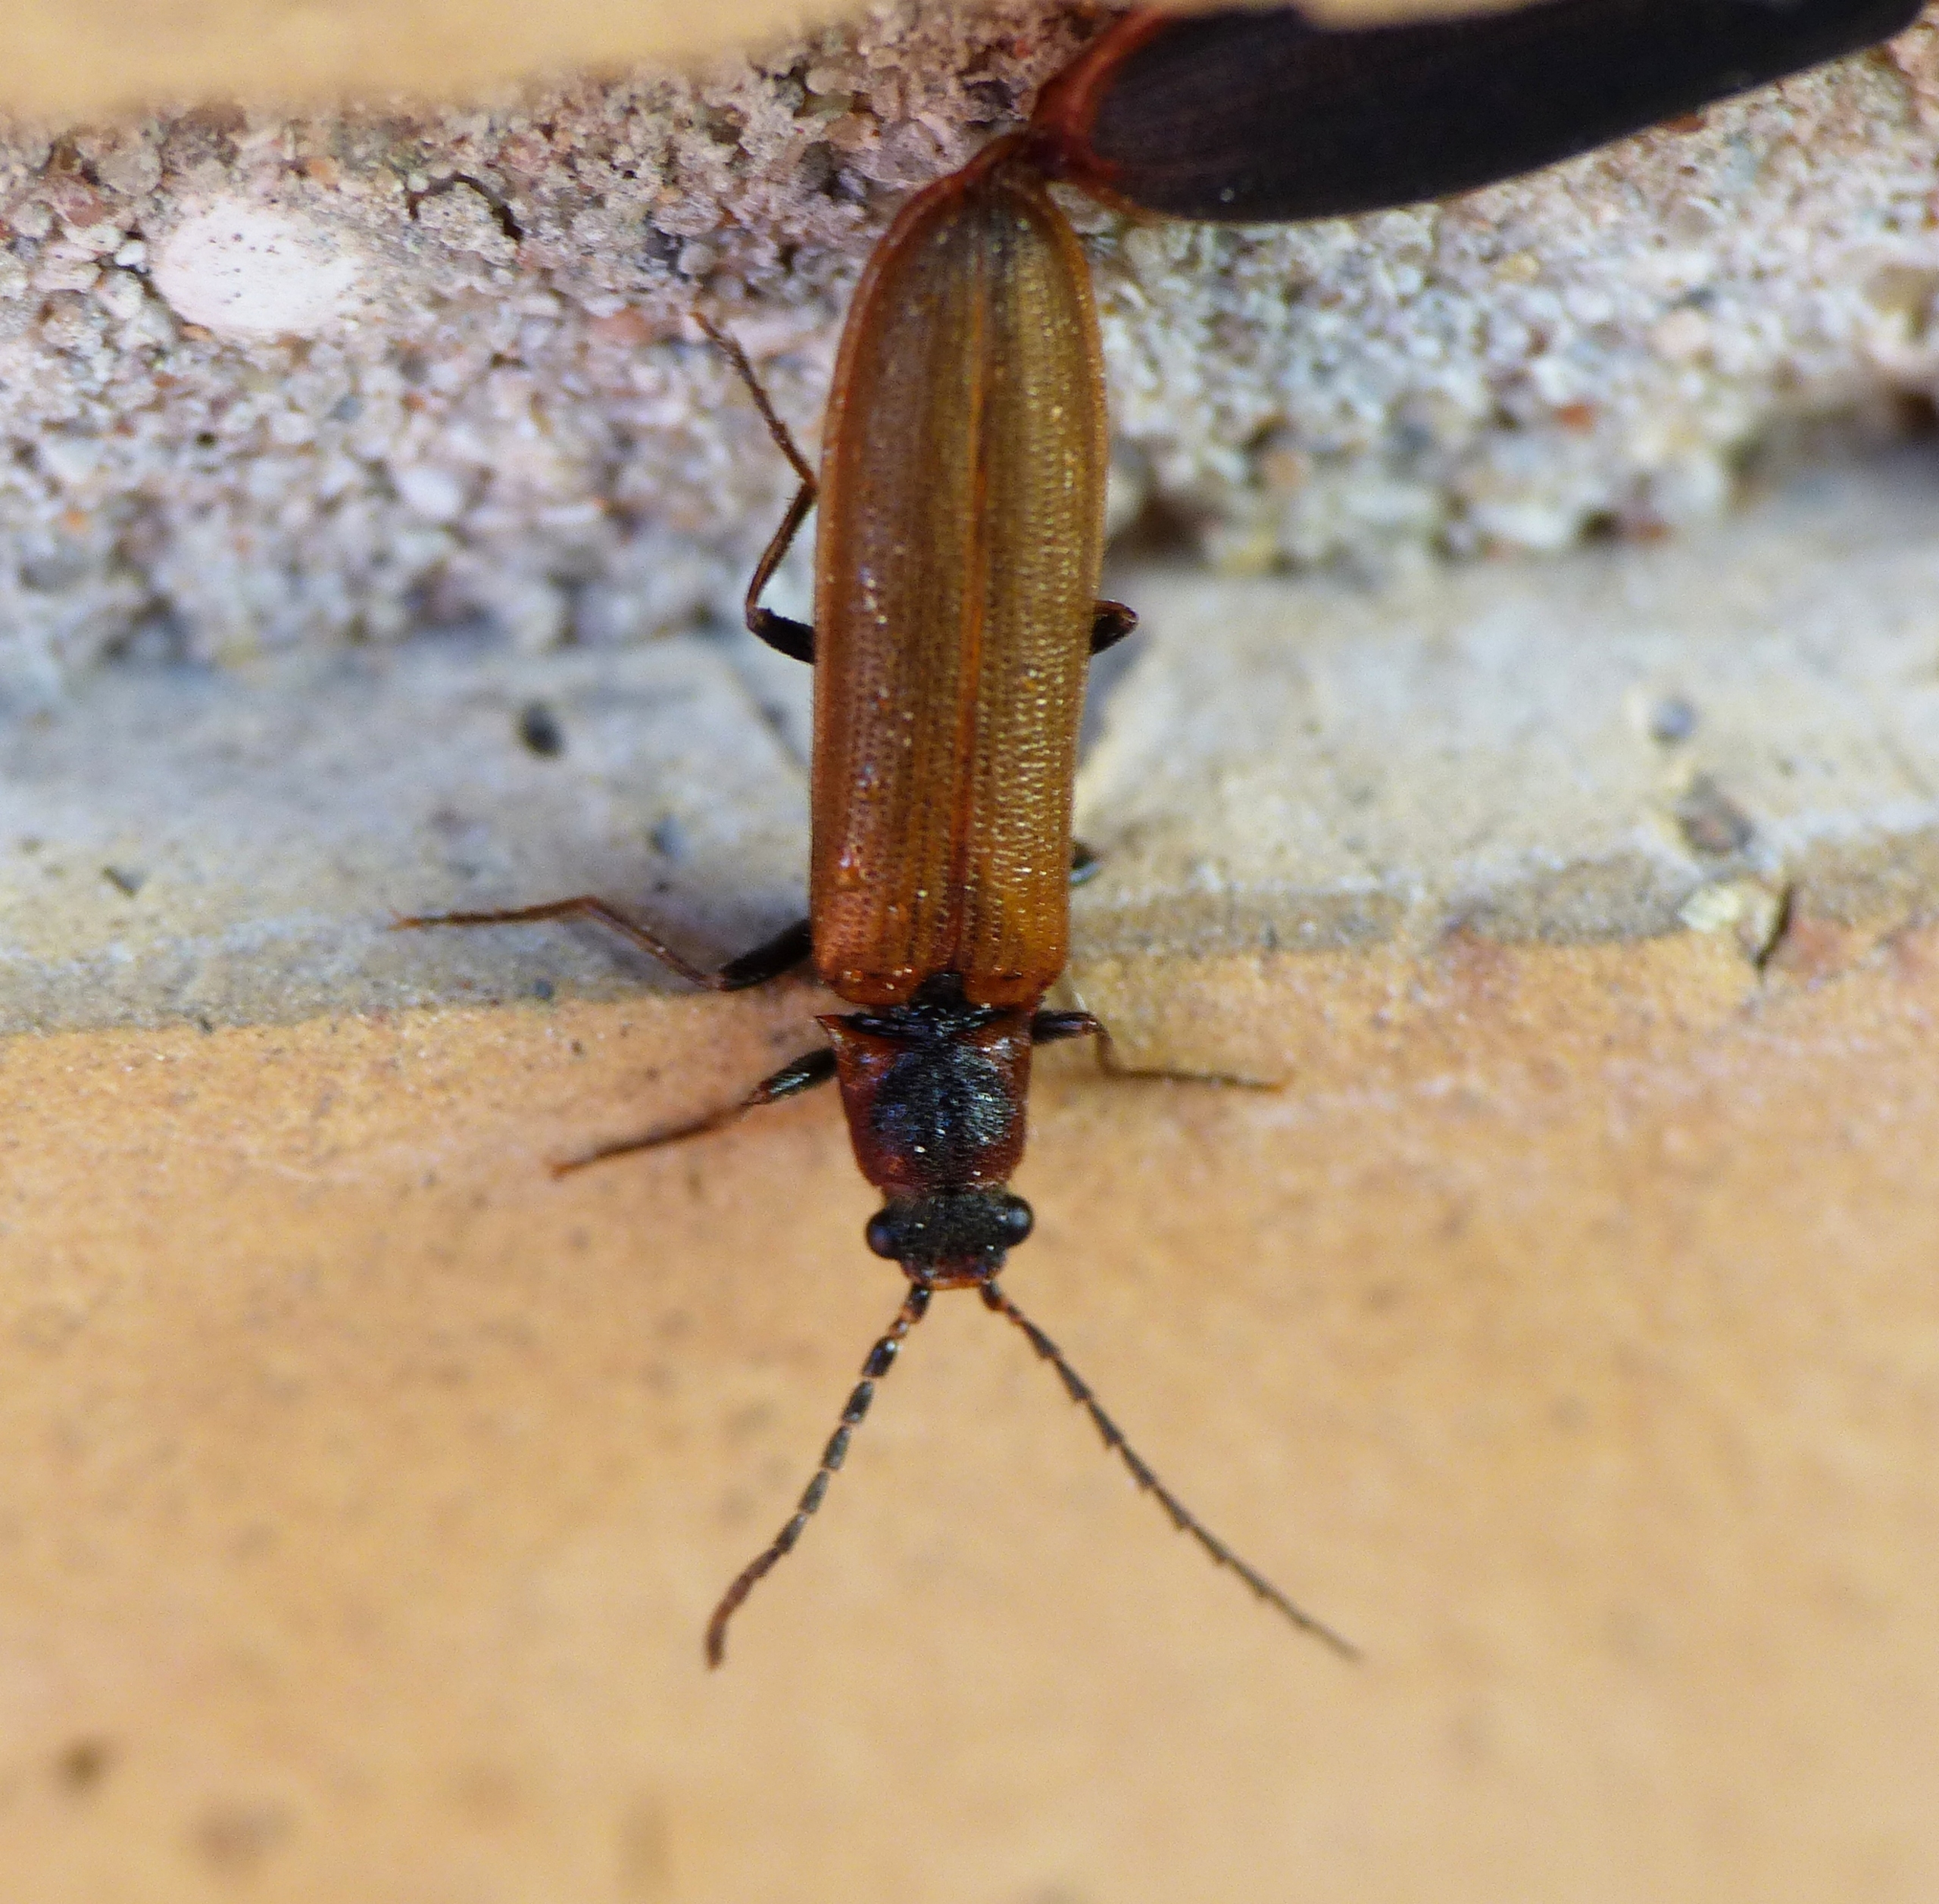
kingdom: Animalia
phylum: Arthropoda
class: Insecta
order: Coleoptera
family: Elateridae
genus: Denticollis
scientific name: Denticollis linearis
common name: Almindelig sirsmælder
